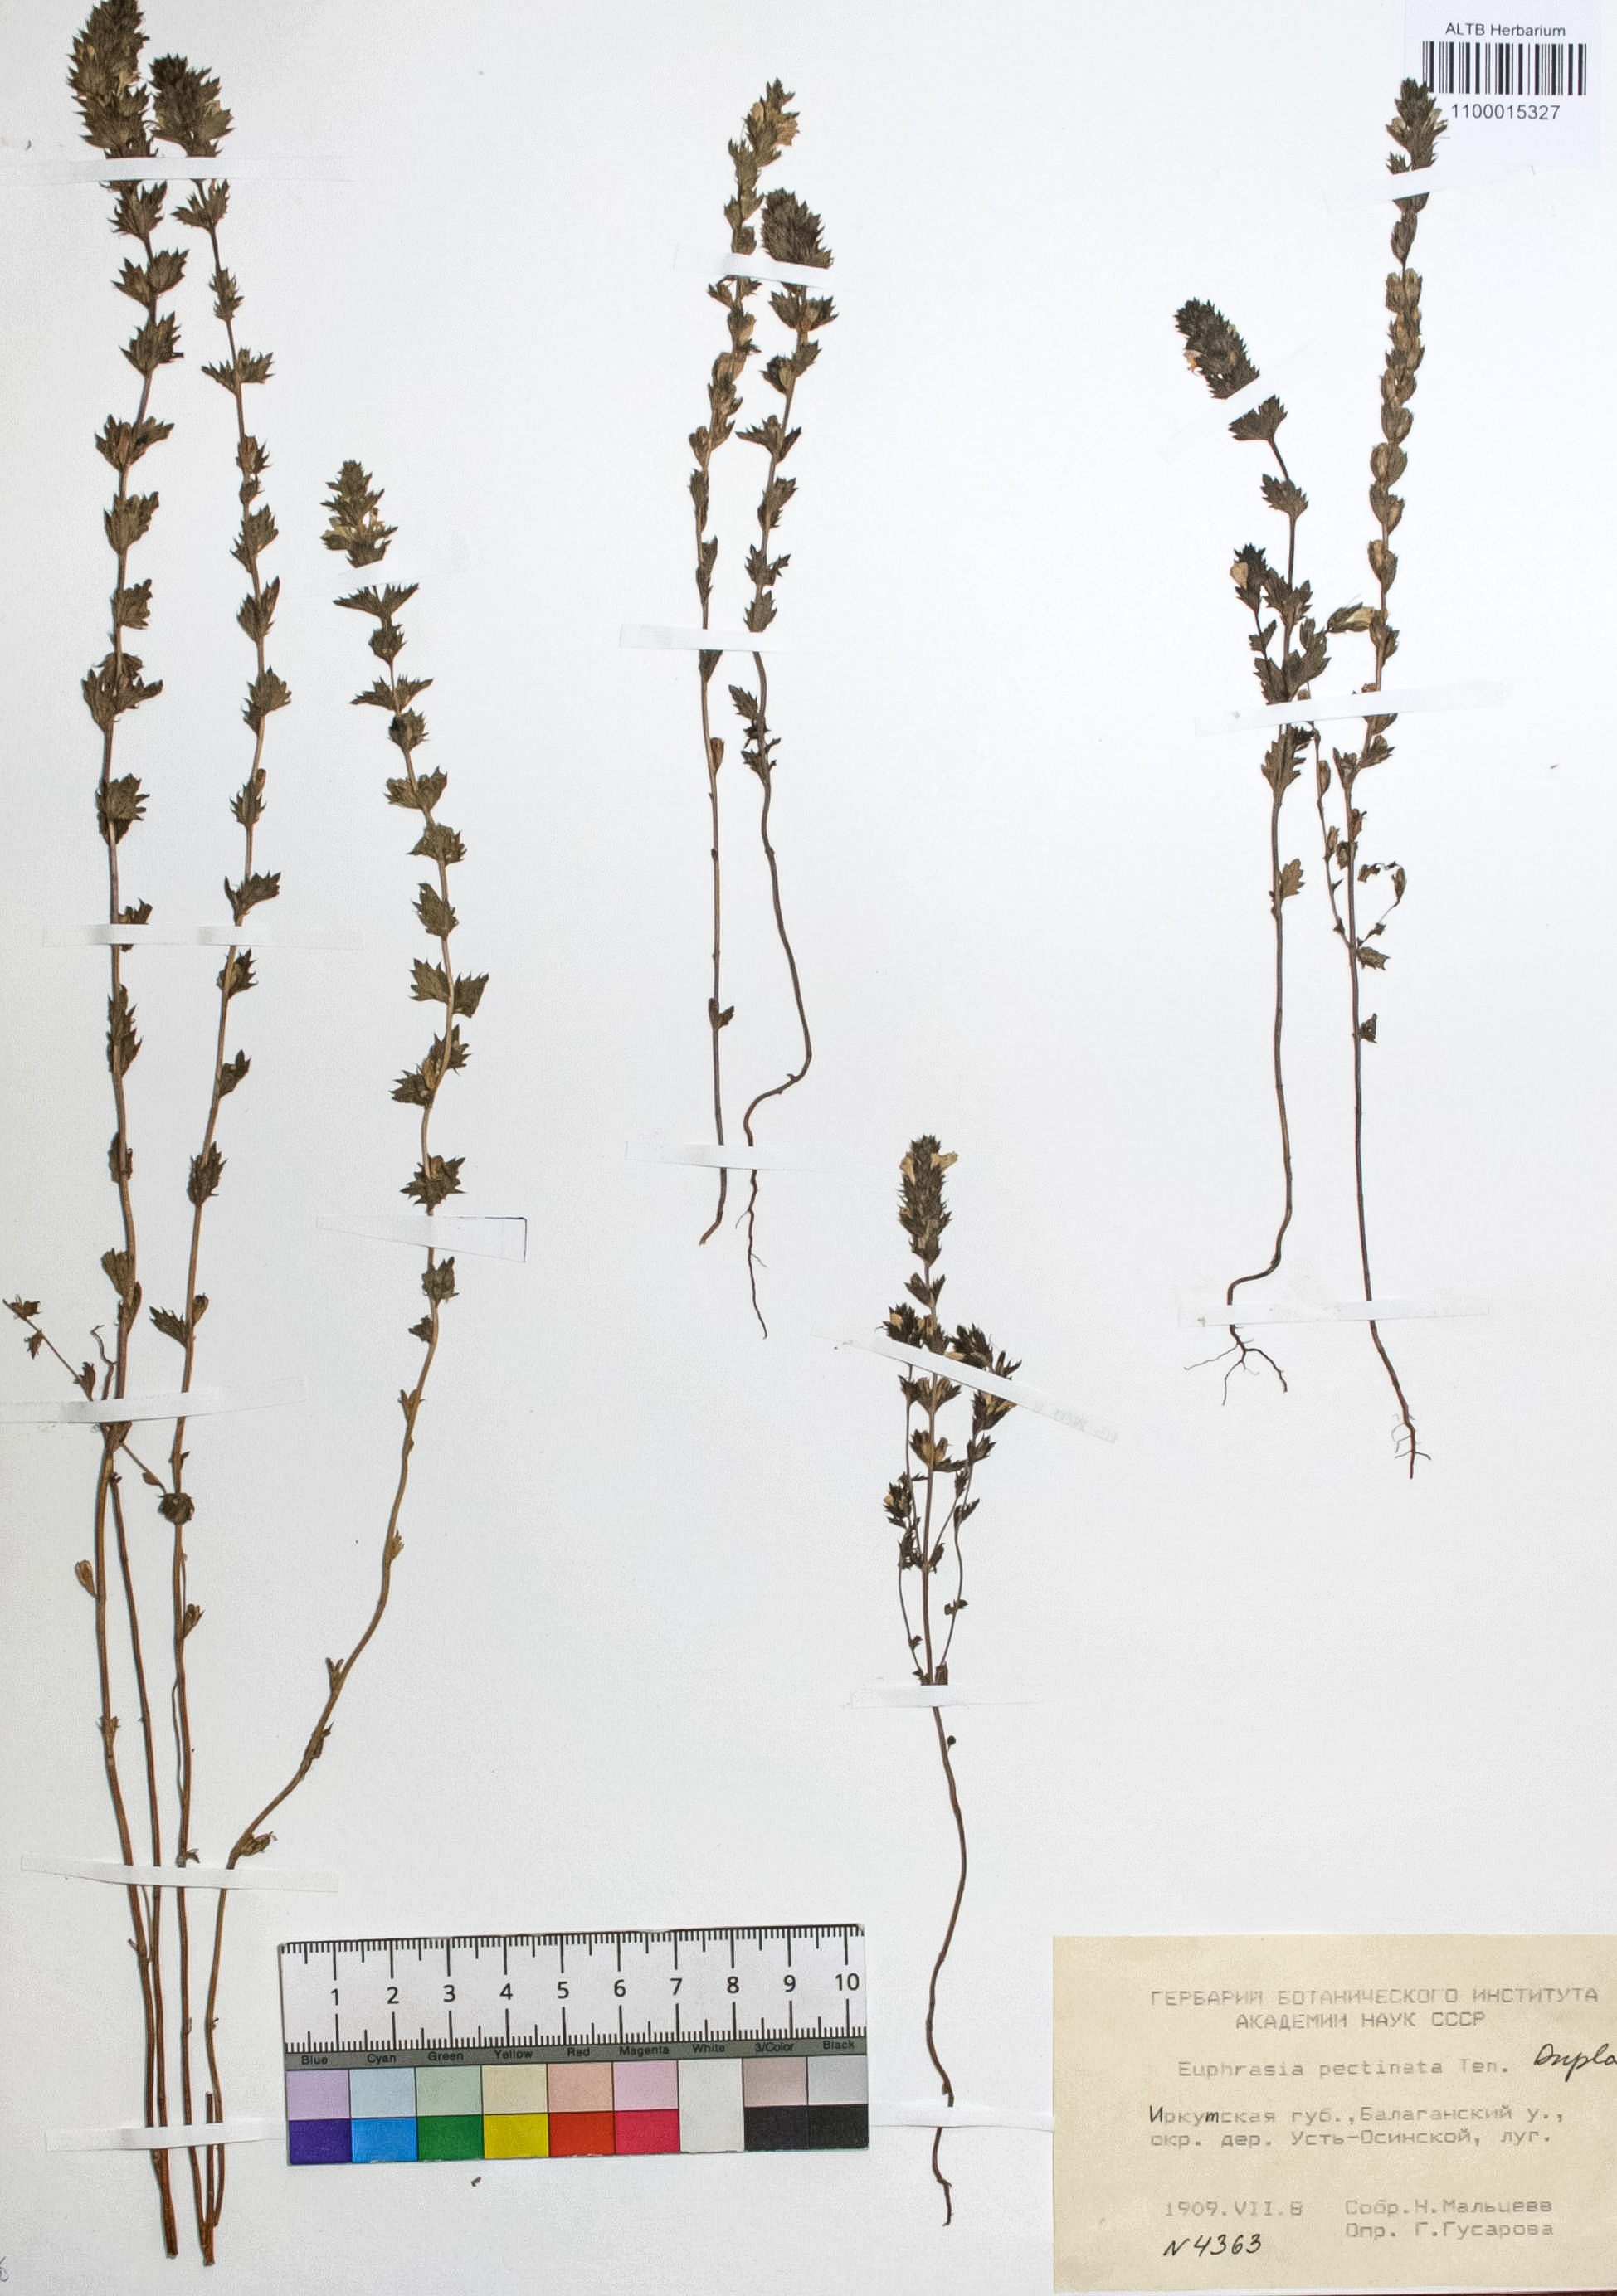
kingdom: Plantae
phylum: Tracheophyta
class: Magnoliopsida
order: Lamiales
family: Orobanchaceae
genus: Euphrasia
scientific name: Euphrasia pectinata
